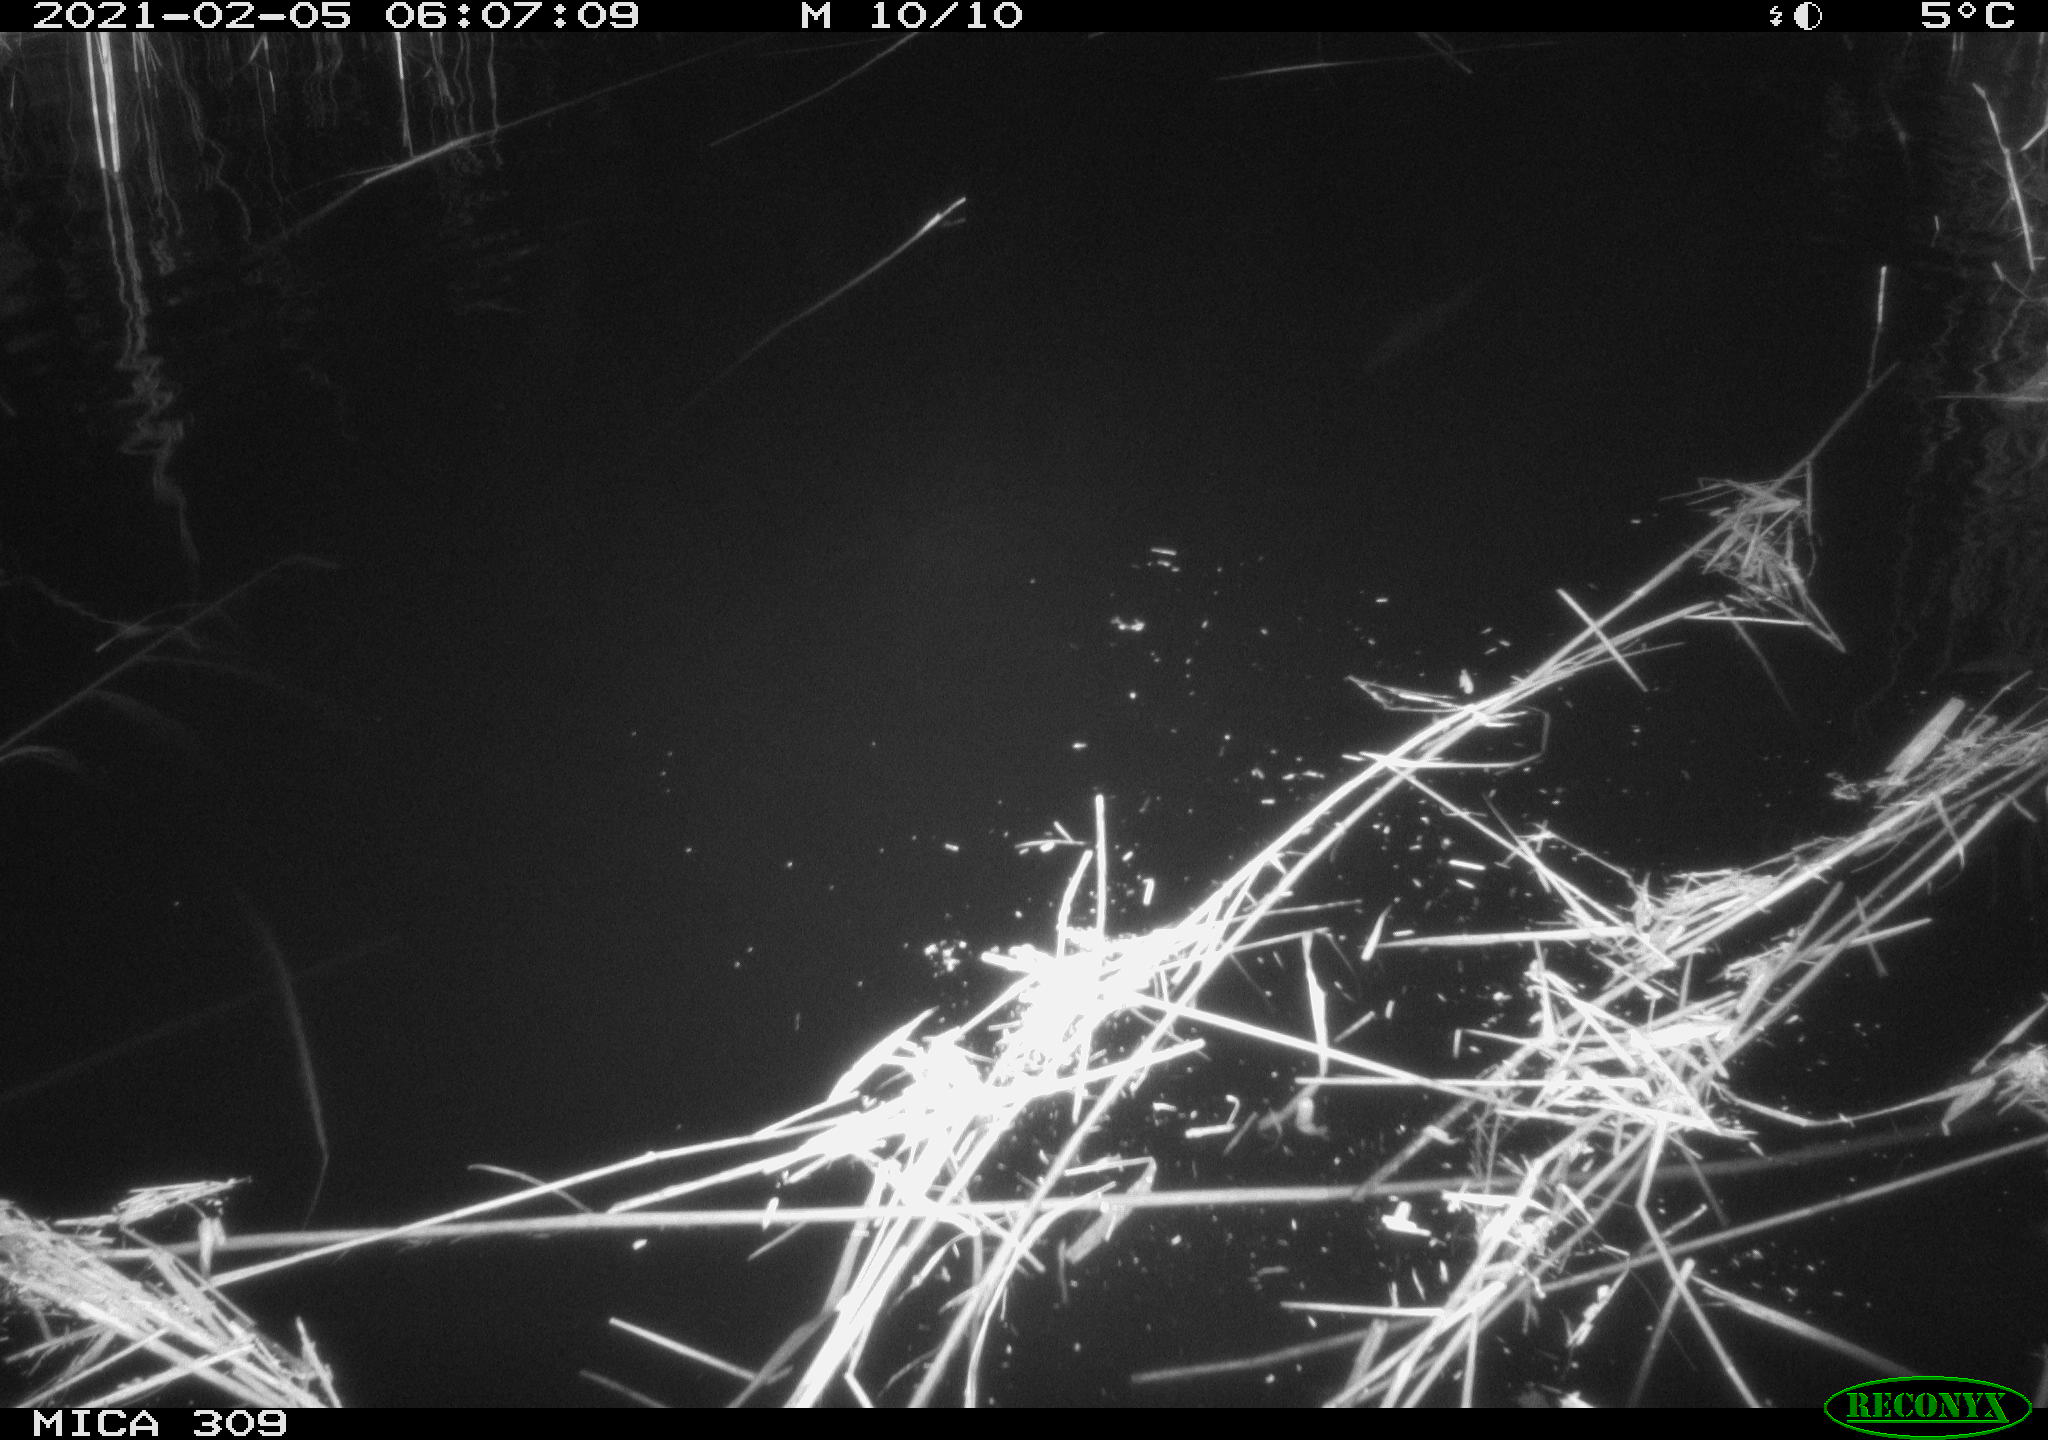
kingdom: Animalia
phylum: Chordata
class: Mammalia
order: Rodentia
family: Muridae
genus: Rattus
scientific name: Rattus norvegicus
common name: Brown rat
